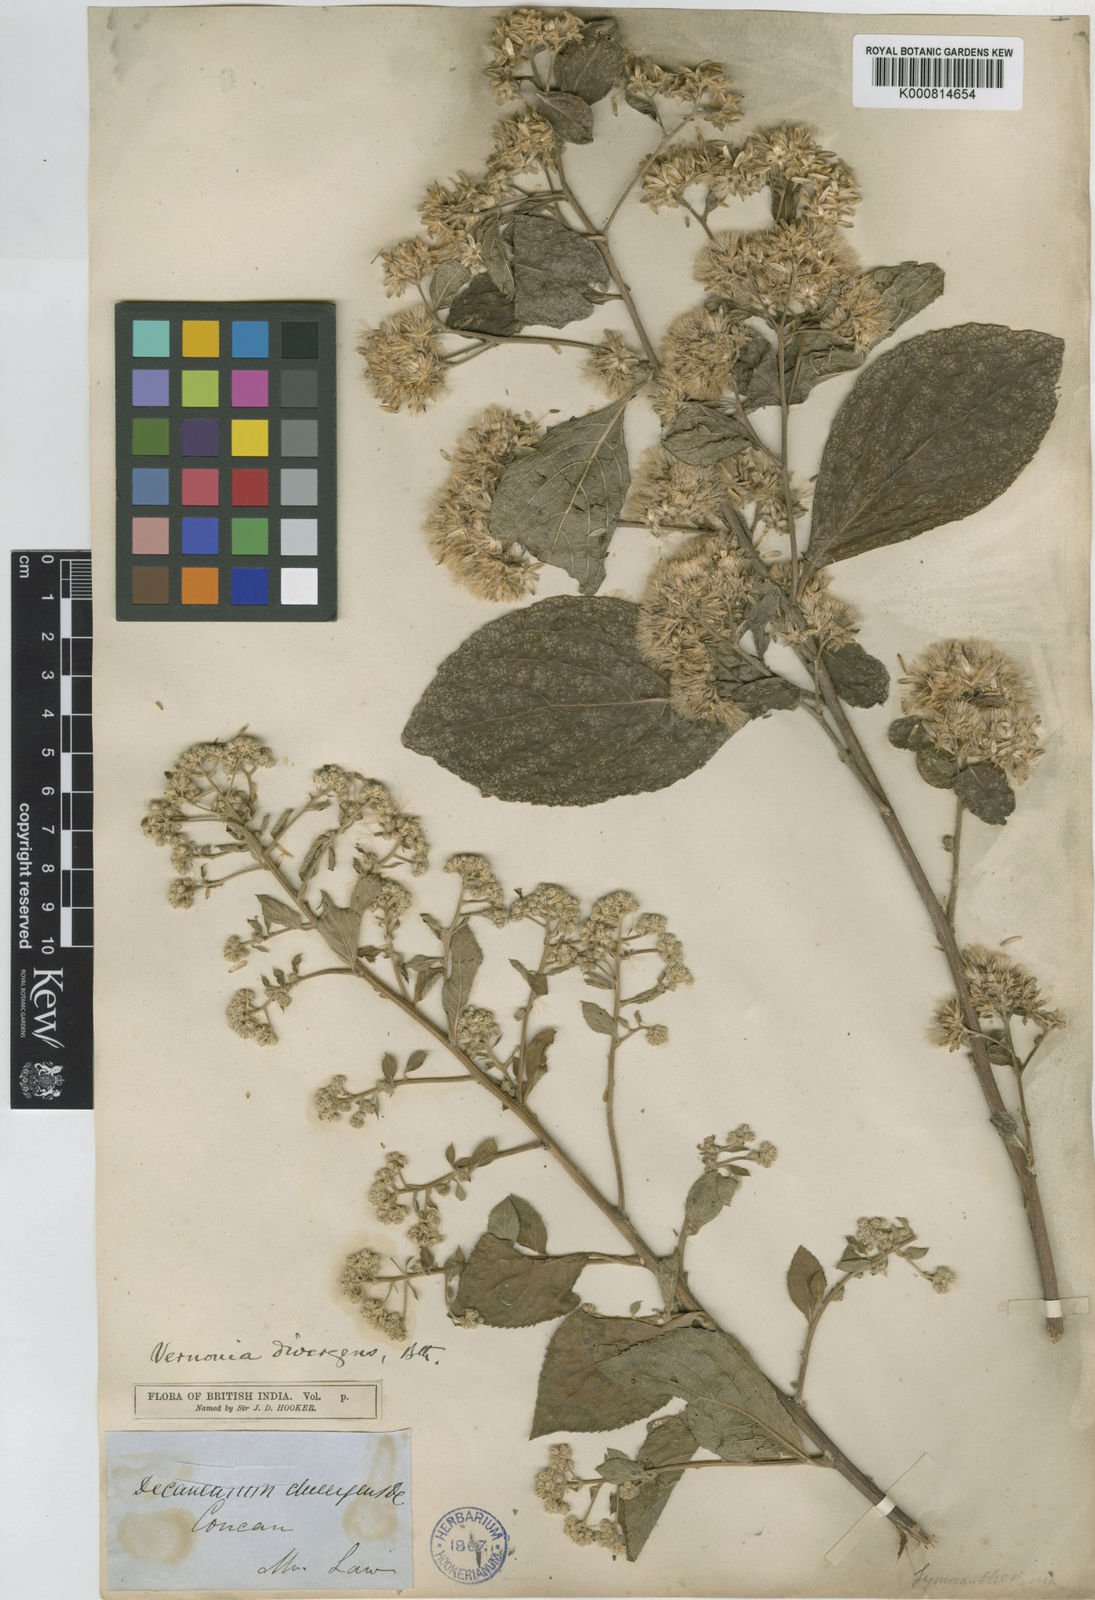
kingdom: Plantae
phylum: Tracheophyta
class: Magnoliopsida
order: Asterales
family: Asteraceae
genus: Vernonia
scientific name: Vernonia
